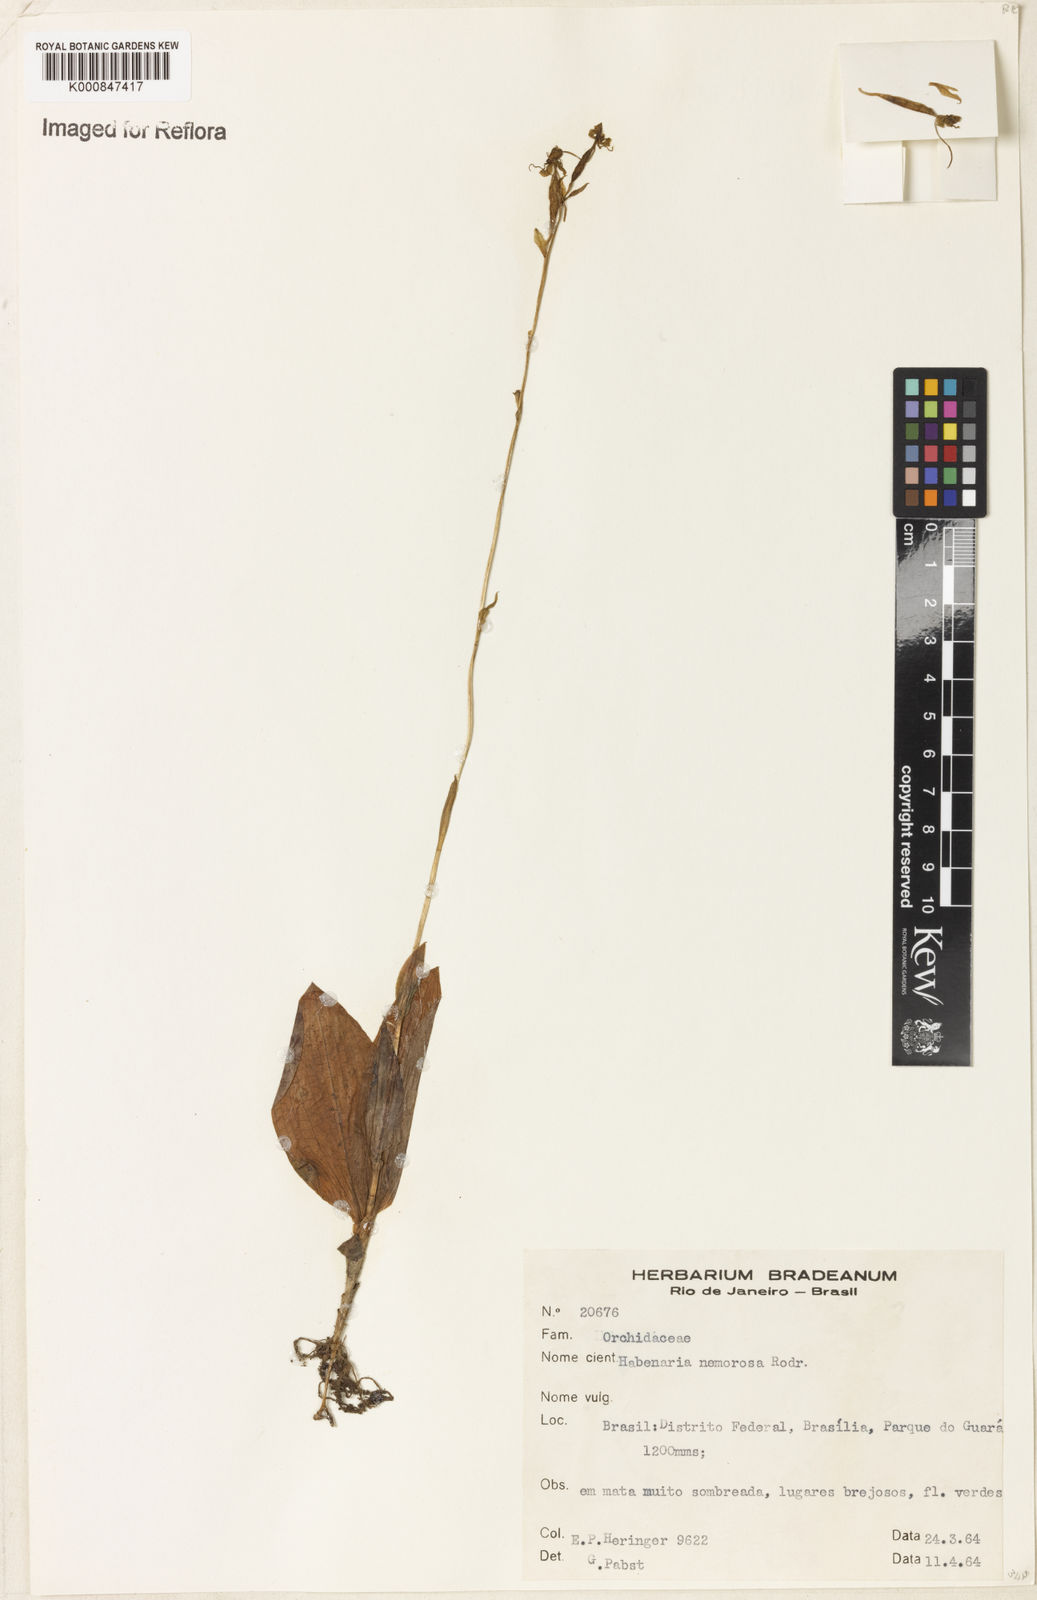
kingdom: Plantae
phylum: Tracheophyta
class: Liliopsida
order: Asparagales
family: Orchidaceae
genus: Habenaria
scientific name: Habenaria nemorosa
